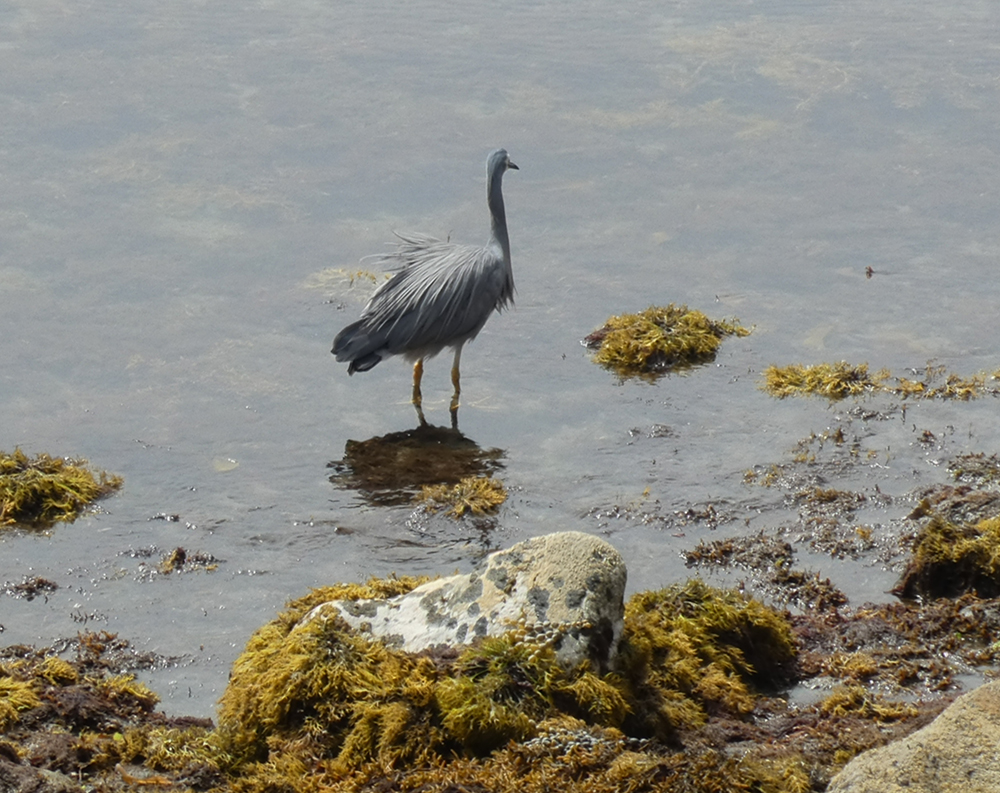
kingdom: Animalia
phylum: Chordata
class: Aves
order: Pelecaniformes
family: Ardeidae
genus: Egretta
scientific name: Egretta novaehollandiae
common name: White-faced heron
